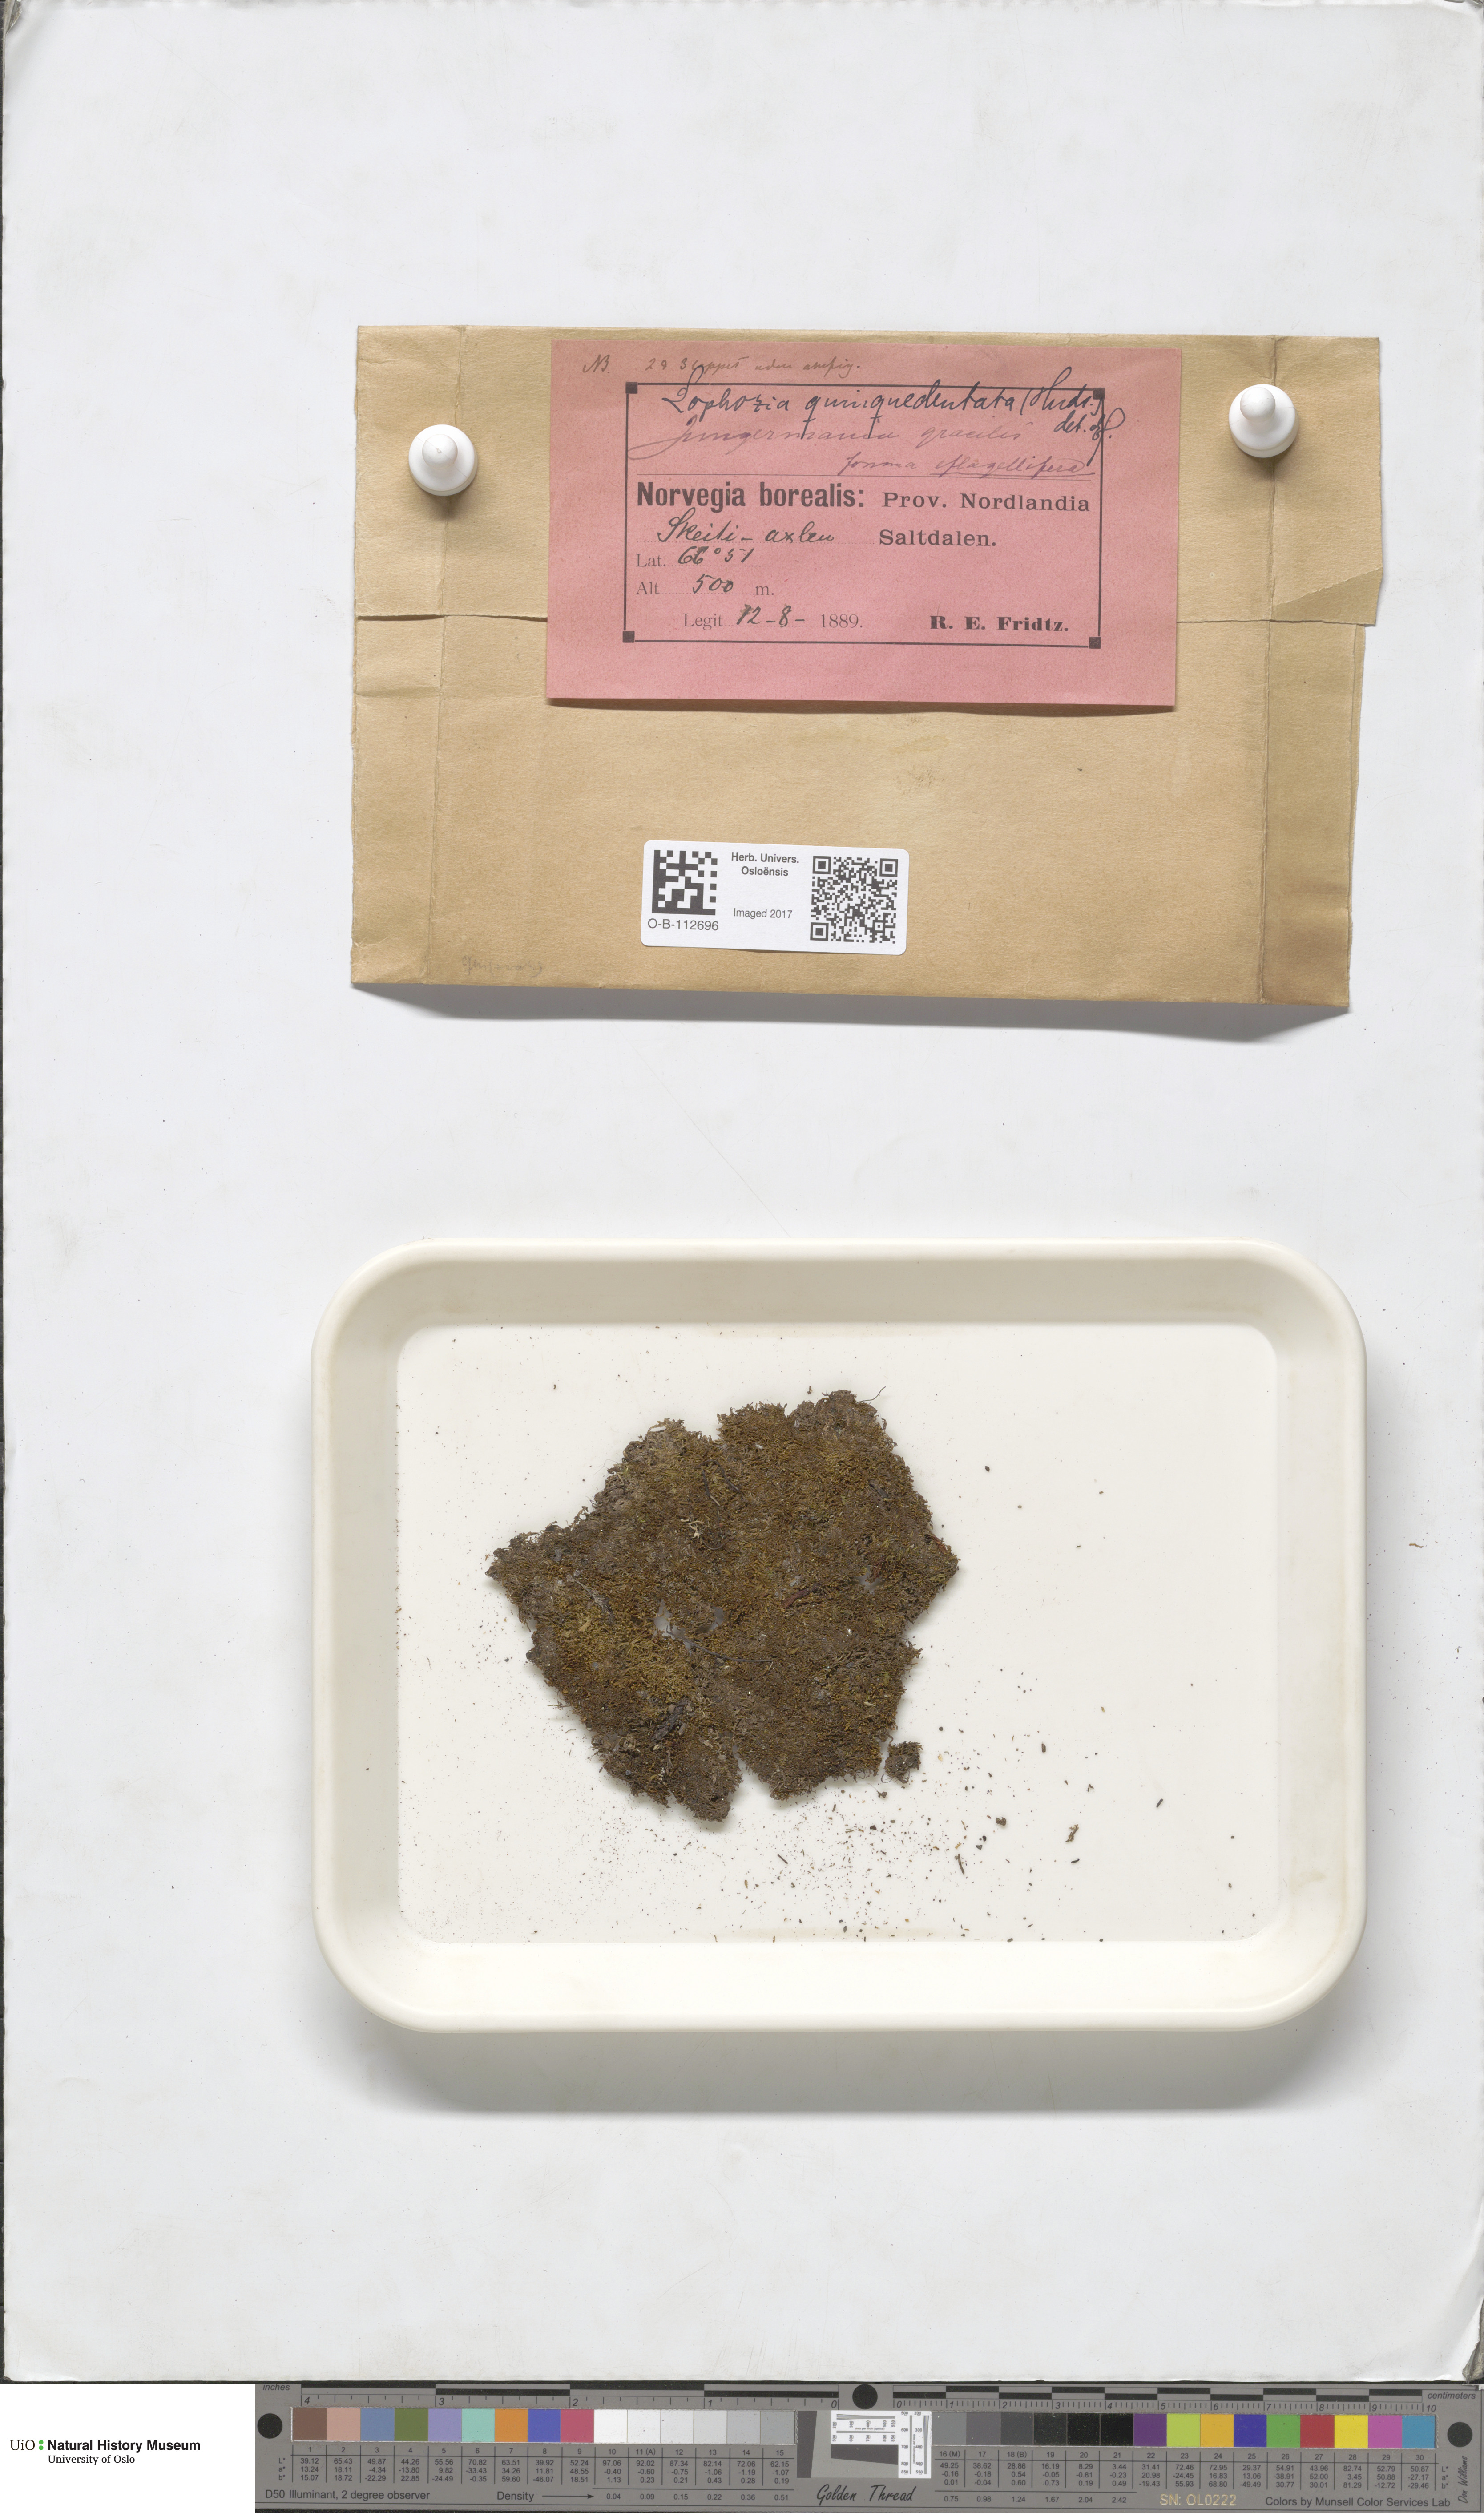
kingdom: Plantae
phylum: Marchantiophyta
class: Jungermanniopsida
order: Jungermanniales
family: Lophoziaceae
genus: Trilophozia
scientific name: Trilophozia quinquedentata
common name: Large notchwort
